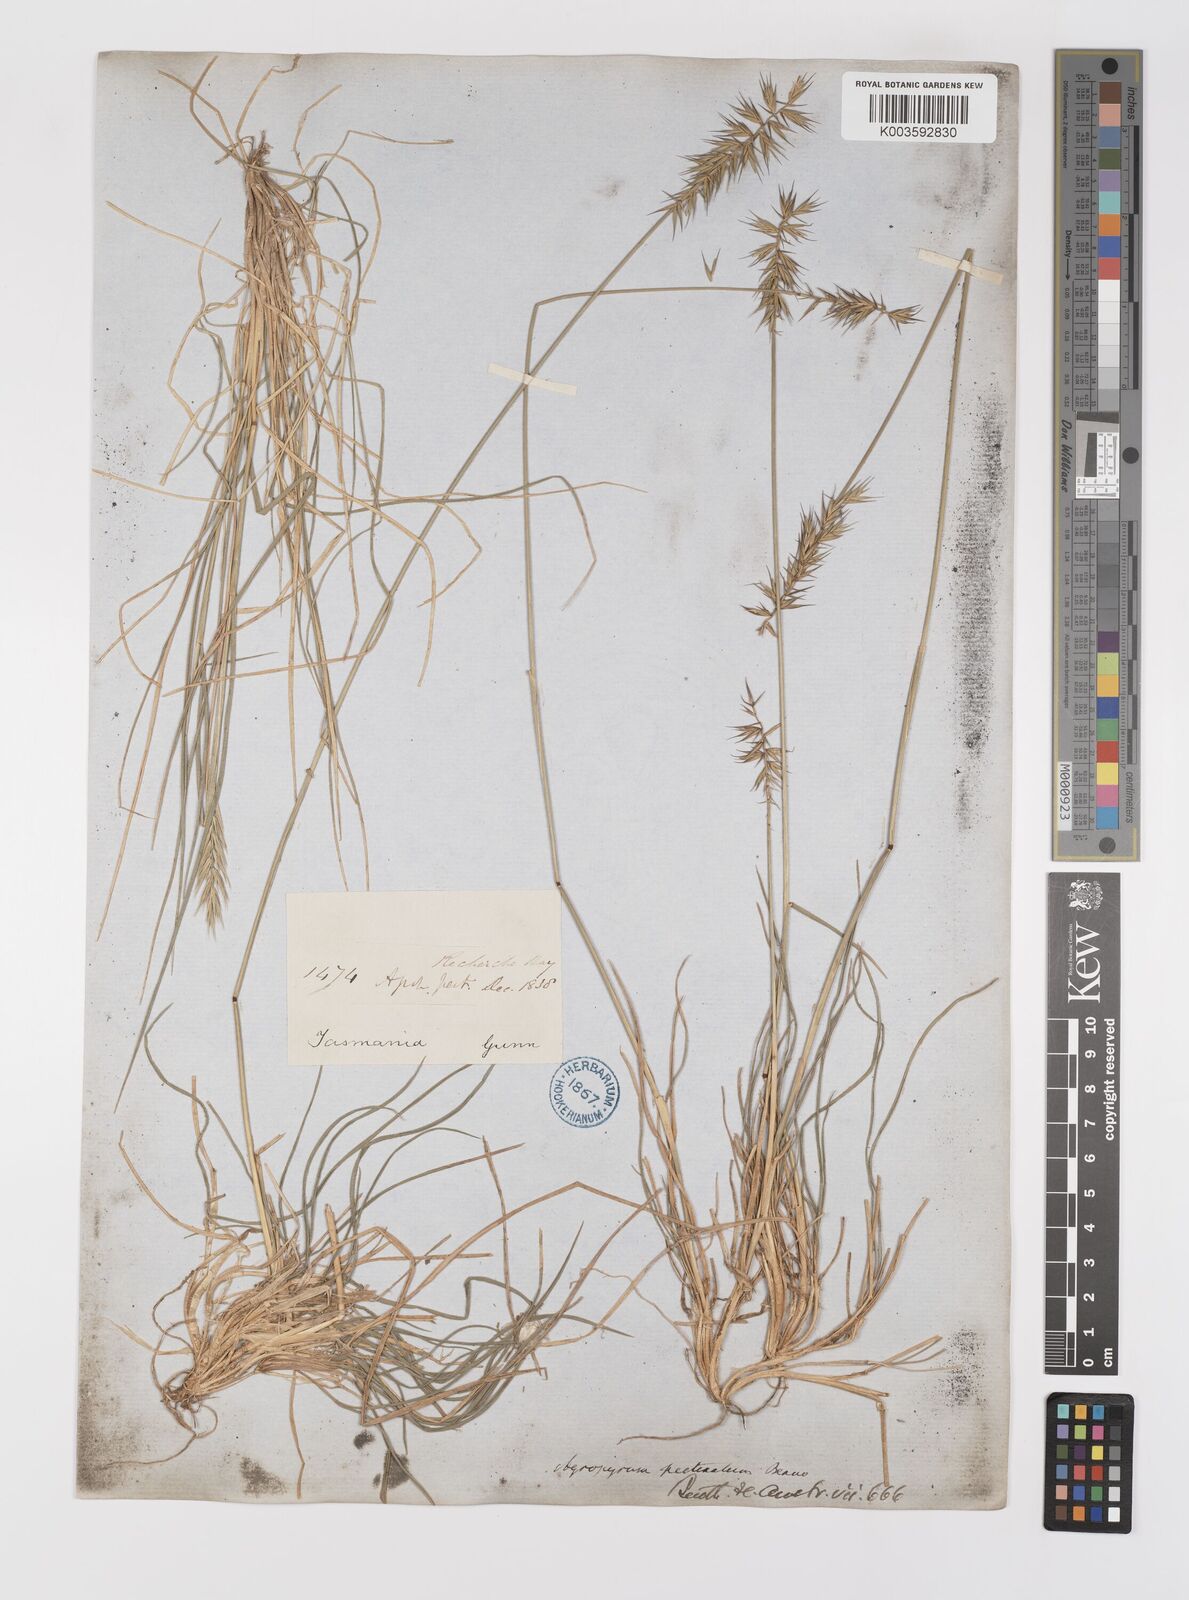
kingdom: Plantae
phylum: Tracheophyta
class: Liliopsida
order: Poales
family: Poaceae
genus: Australopyrum
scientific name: Australopyrum pectinatum
